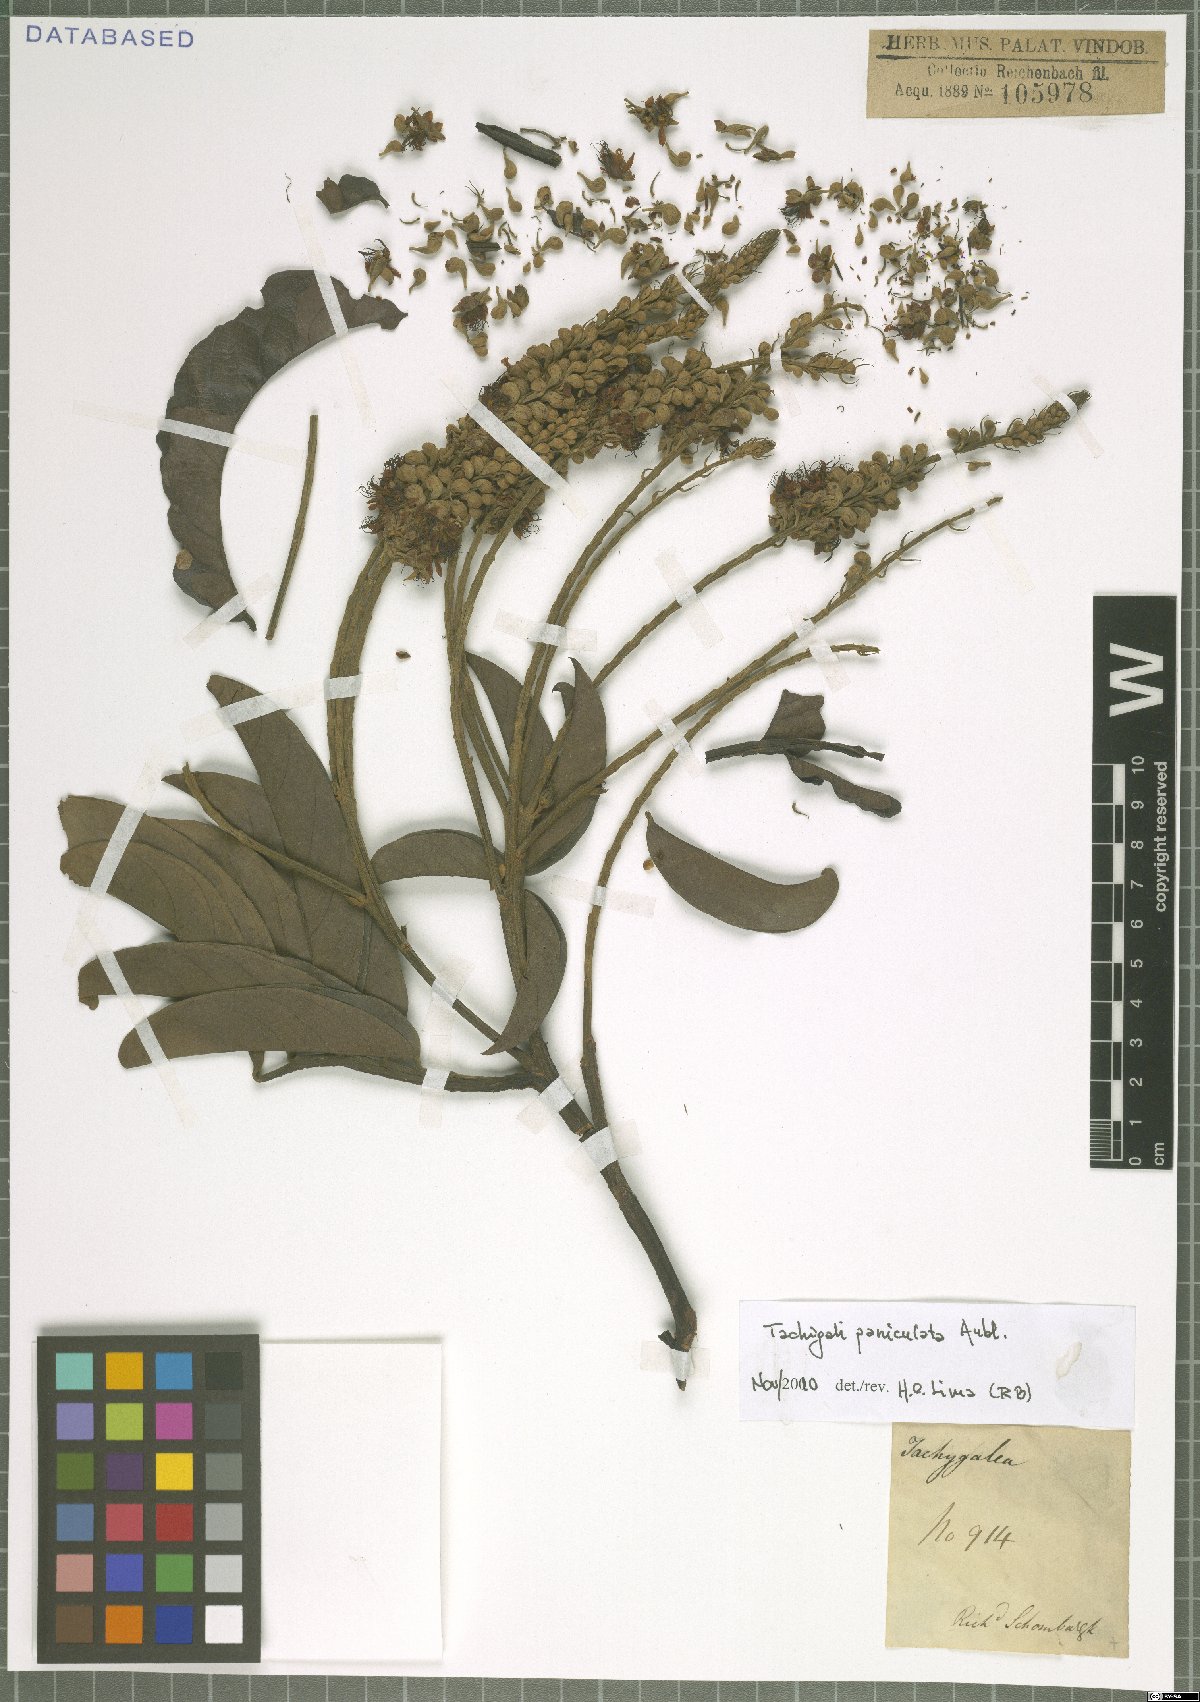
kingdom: Plantae
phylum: Tracheophyta
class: Magnoliopsida
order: Fabales
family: Fabaceae
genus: Tachigali
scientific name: Tachigali paniculata
